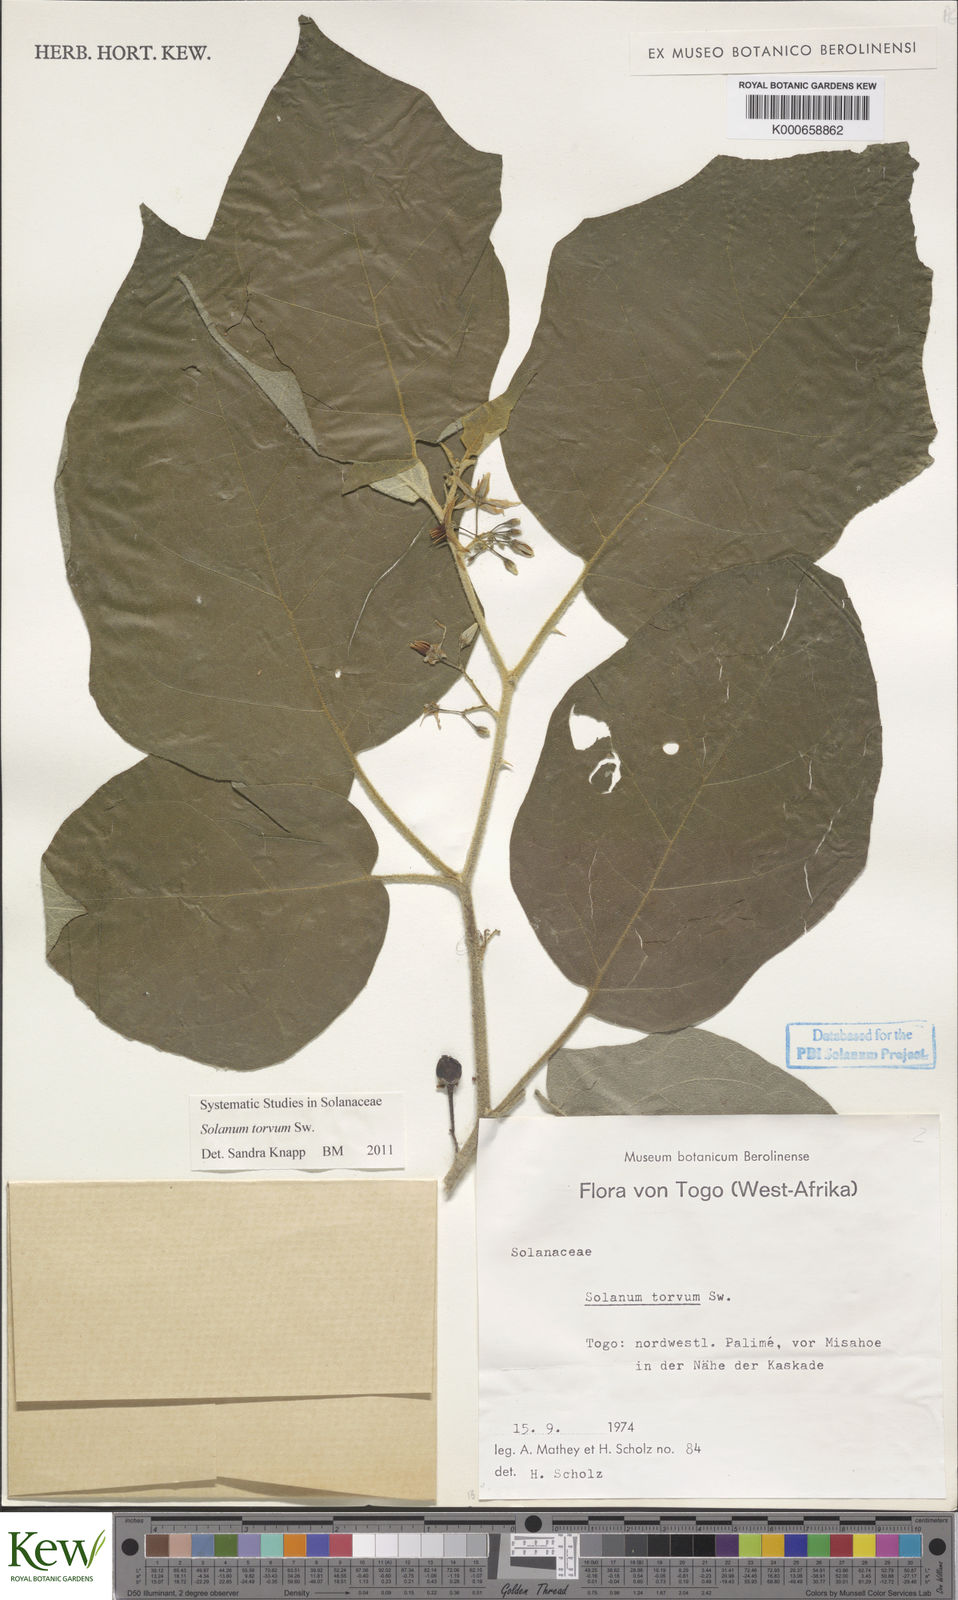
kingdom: Plantae
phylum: Tracheophyta
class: Magnoliopsida
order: Solanales
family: Solanaceae
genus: Solanum
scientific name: Solanum torvum
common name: Turkey berry
